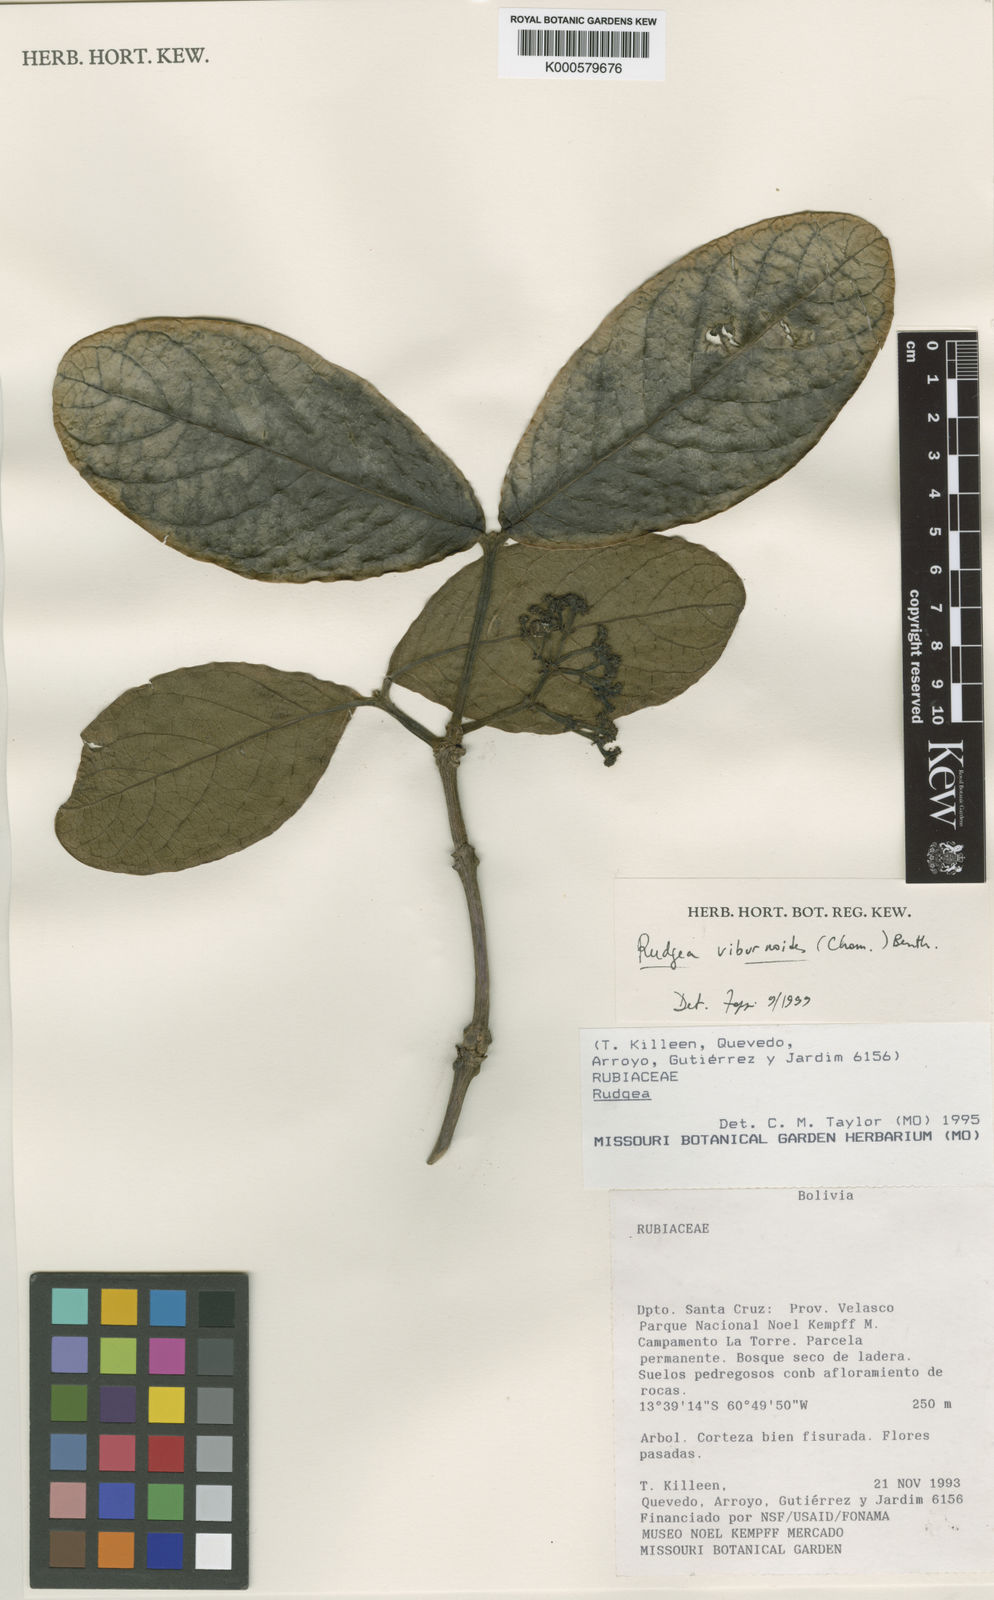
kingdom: Plantae
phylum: Tracheophyta
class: Magnoliopsida
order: Gentianales
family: Rubiaceae
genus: Rudgea
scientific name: Rudgea viburnoides
